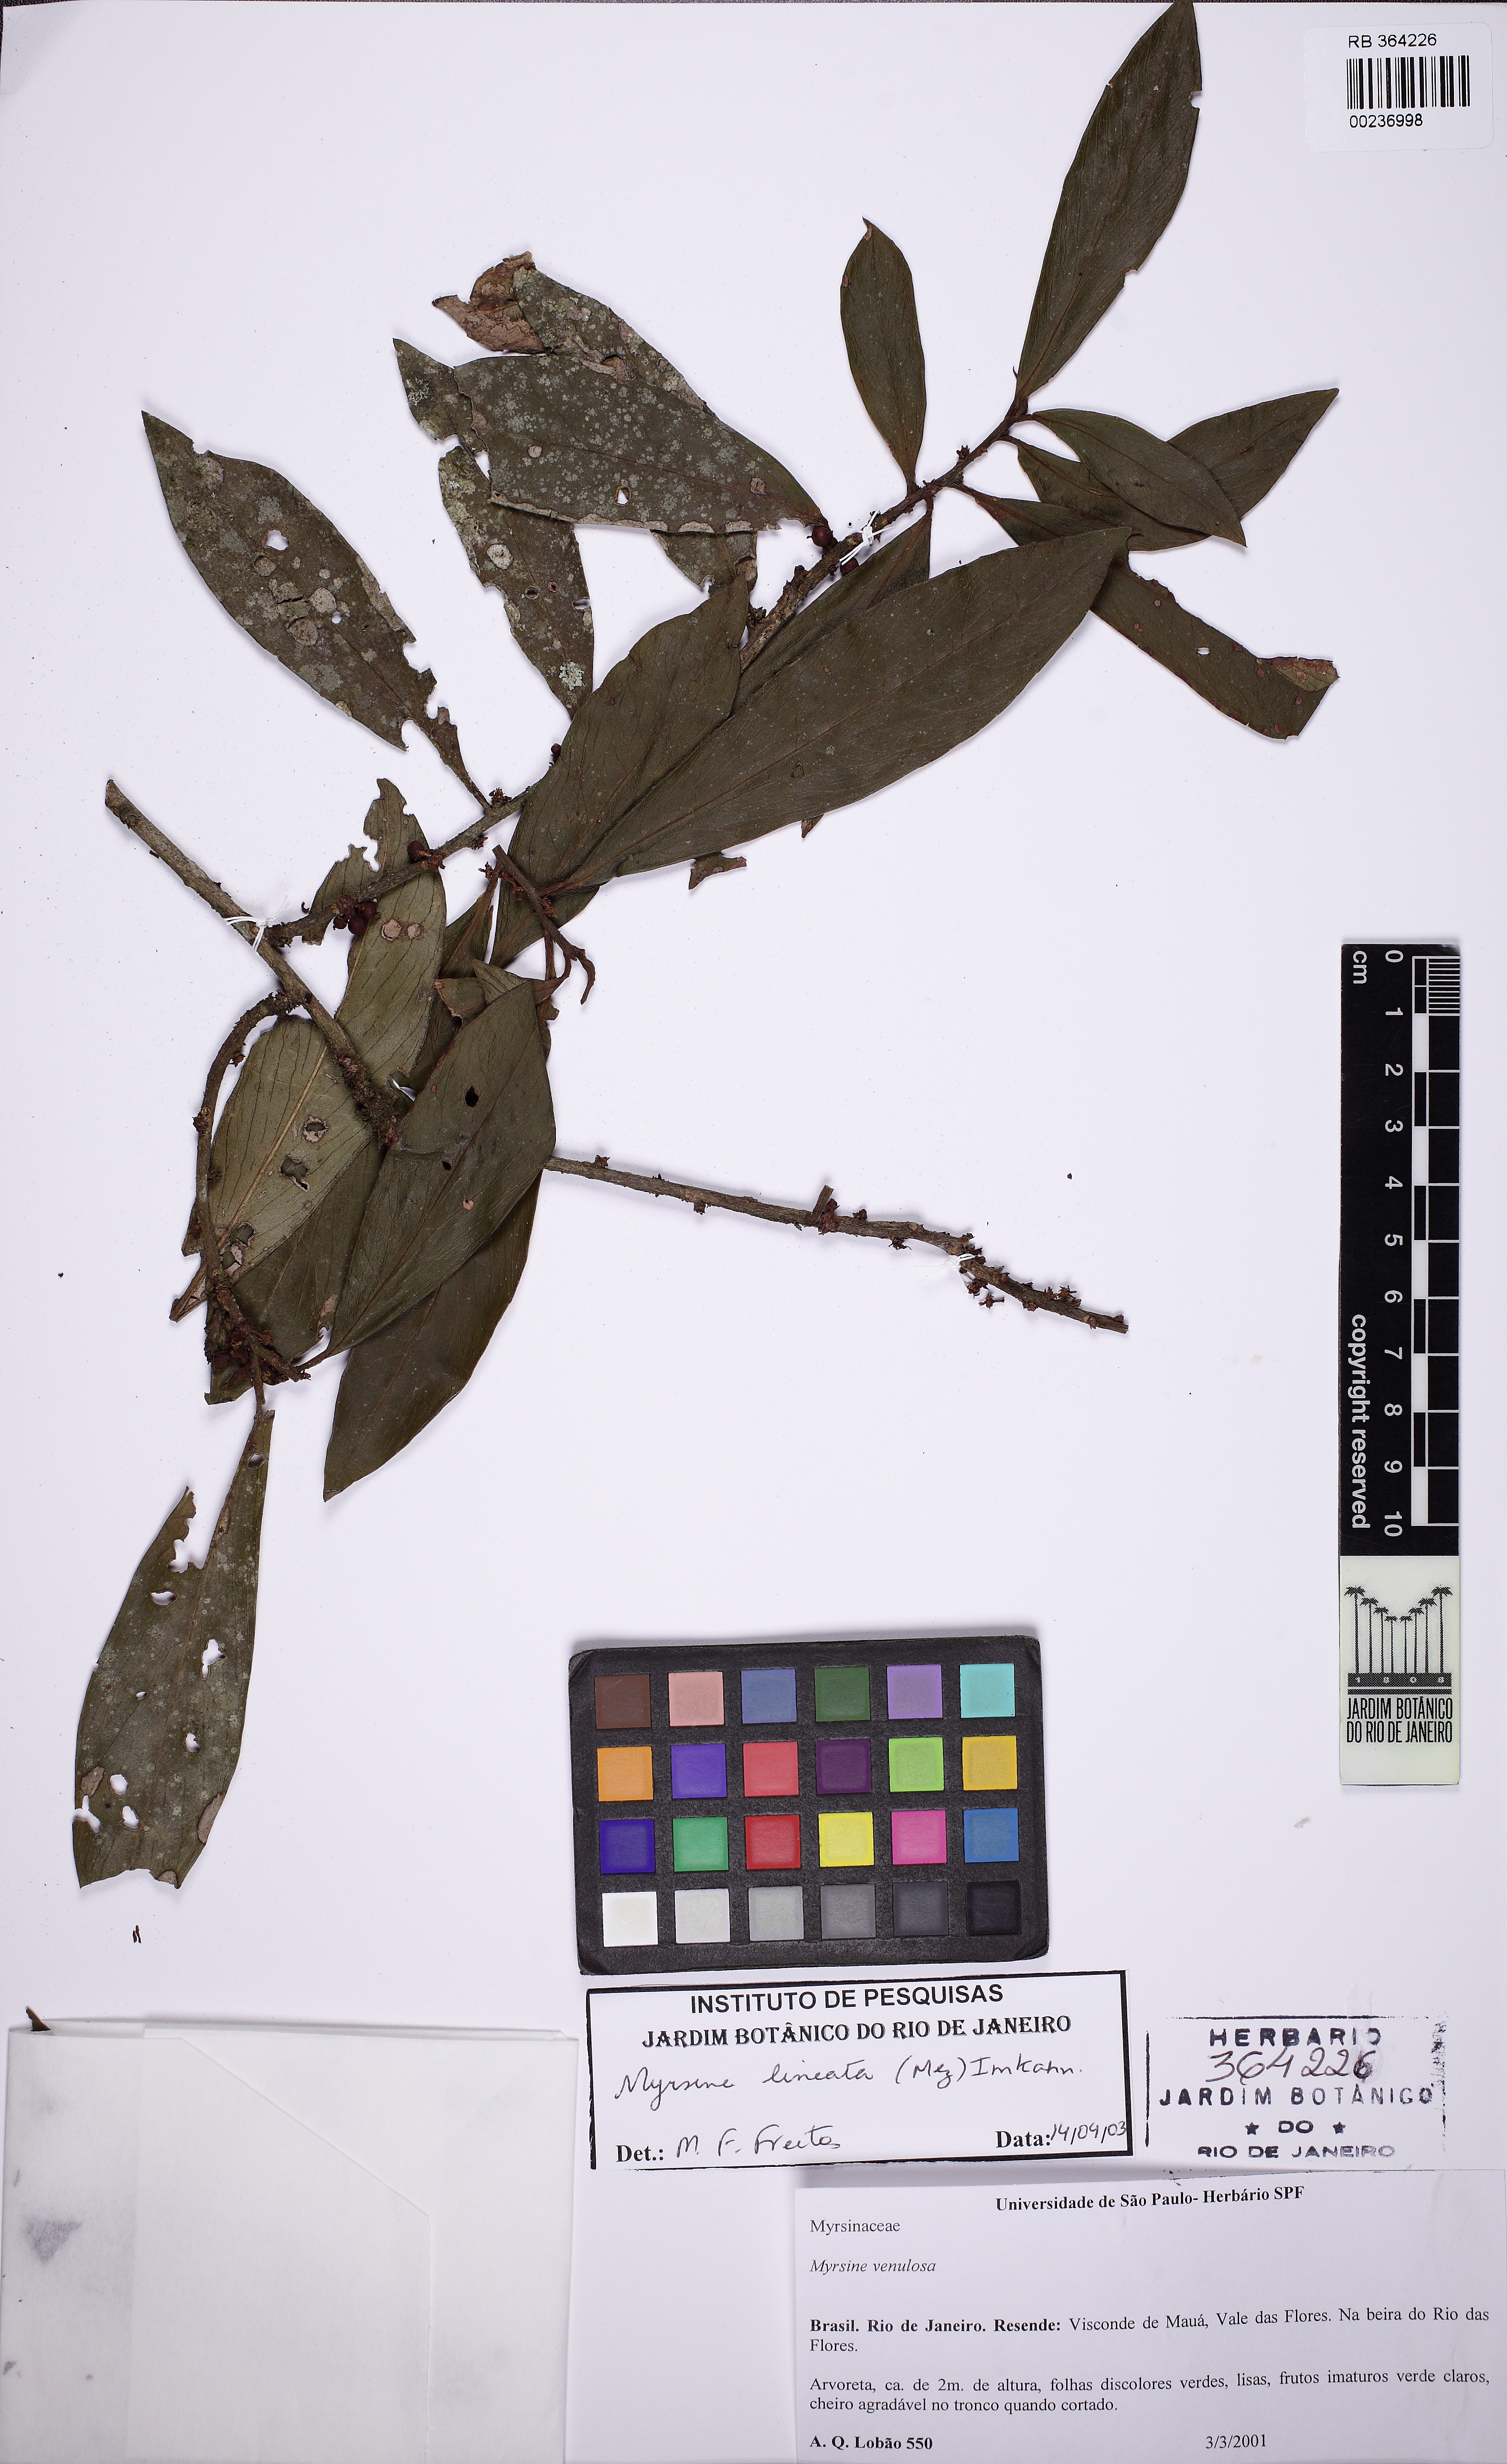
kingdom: Plantae
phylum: Tracheophyta
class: Magnoliopsida
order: Ericales
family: Primulaceae
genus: Myrsine
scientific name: Myrsine lineata
